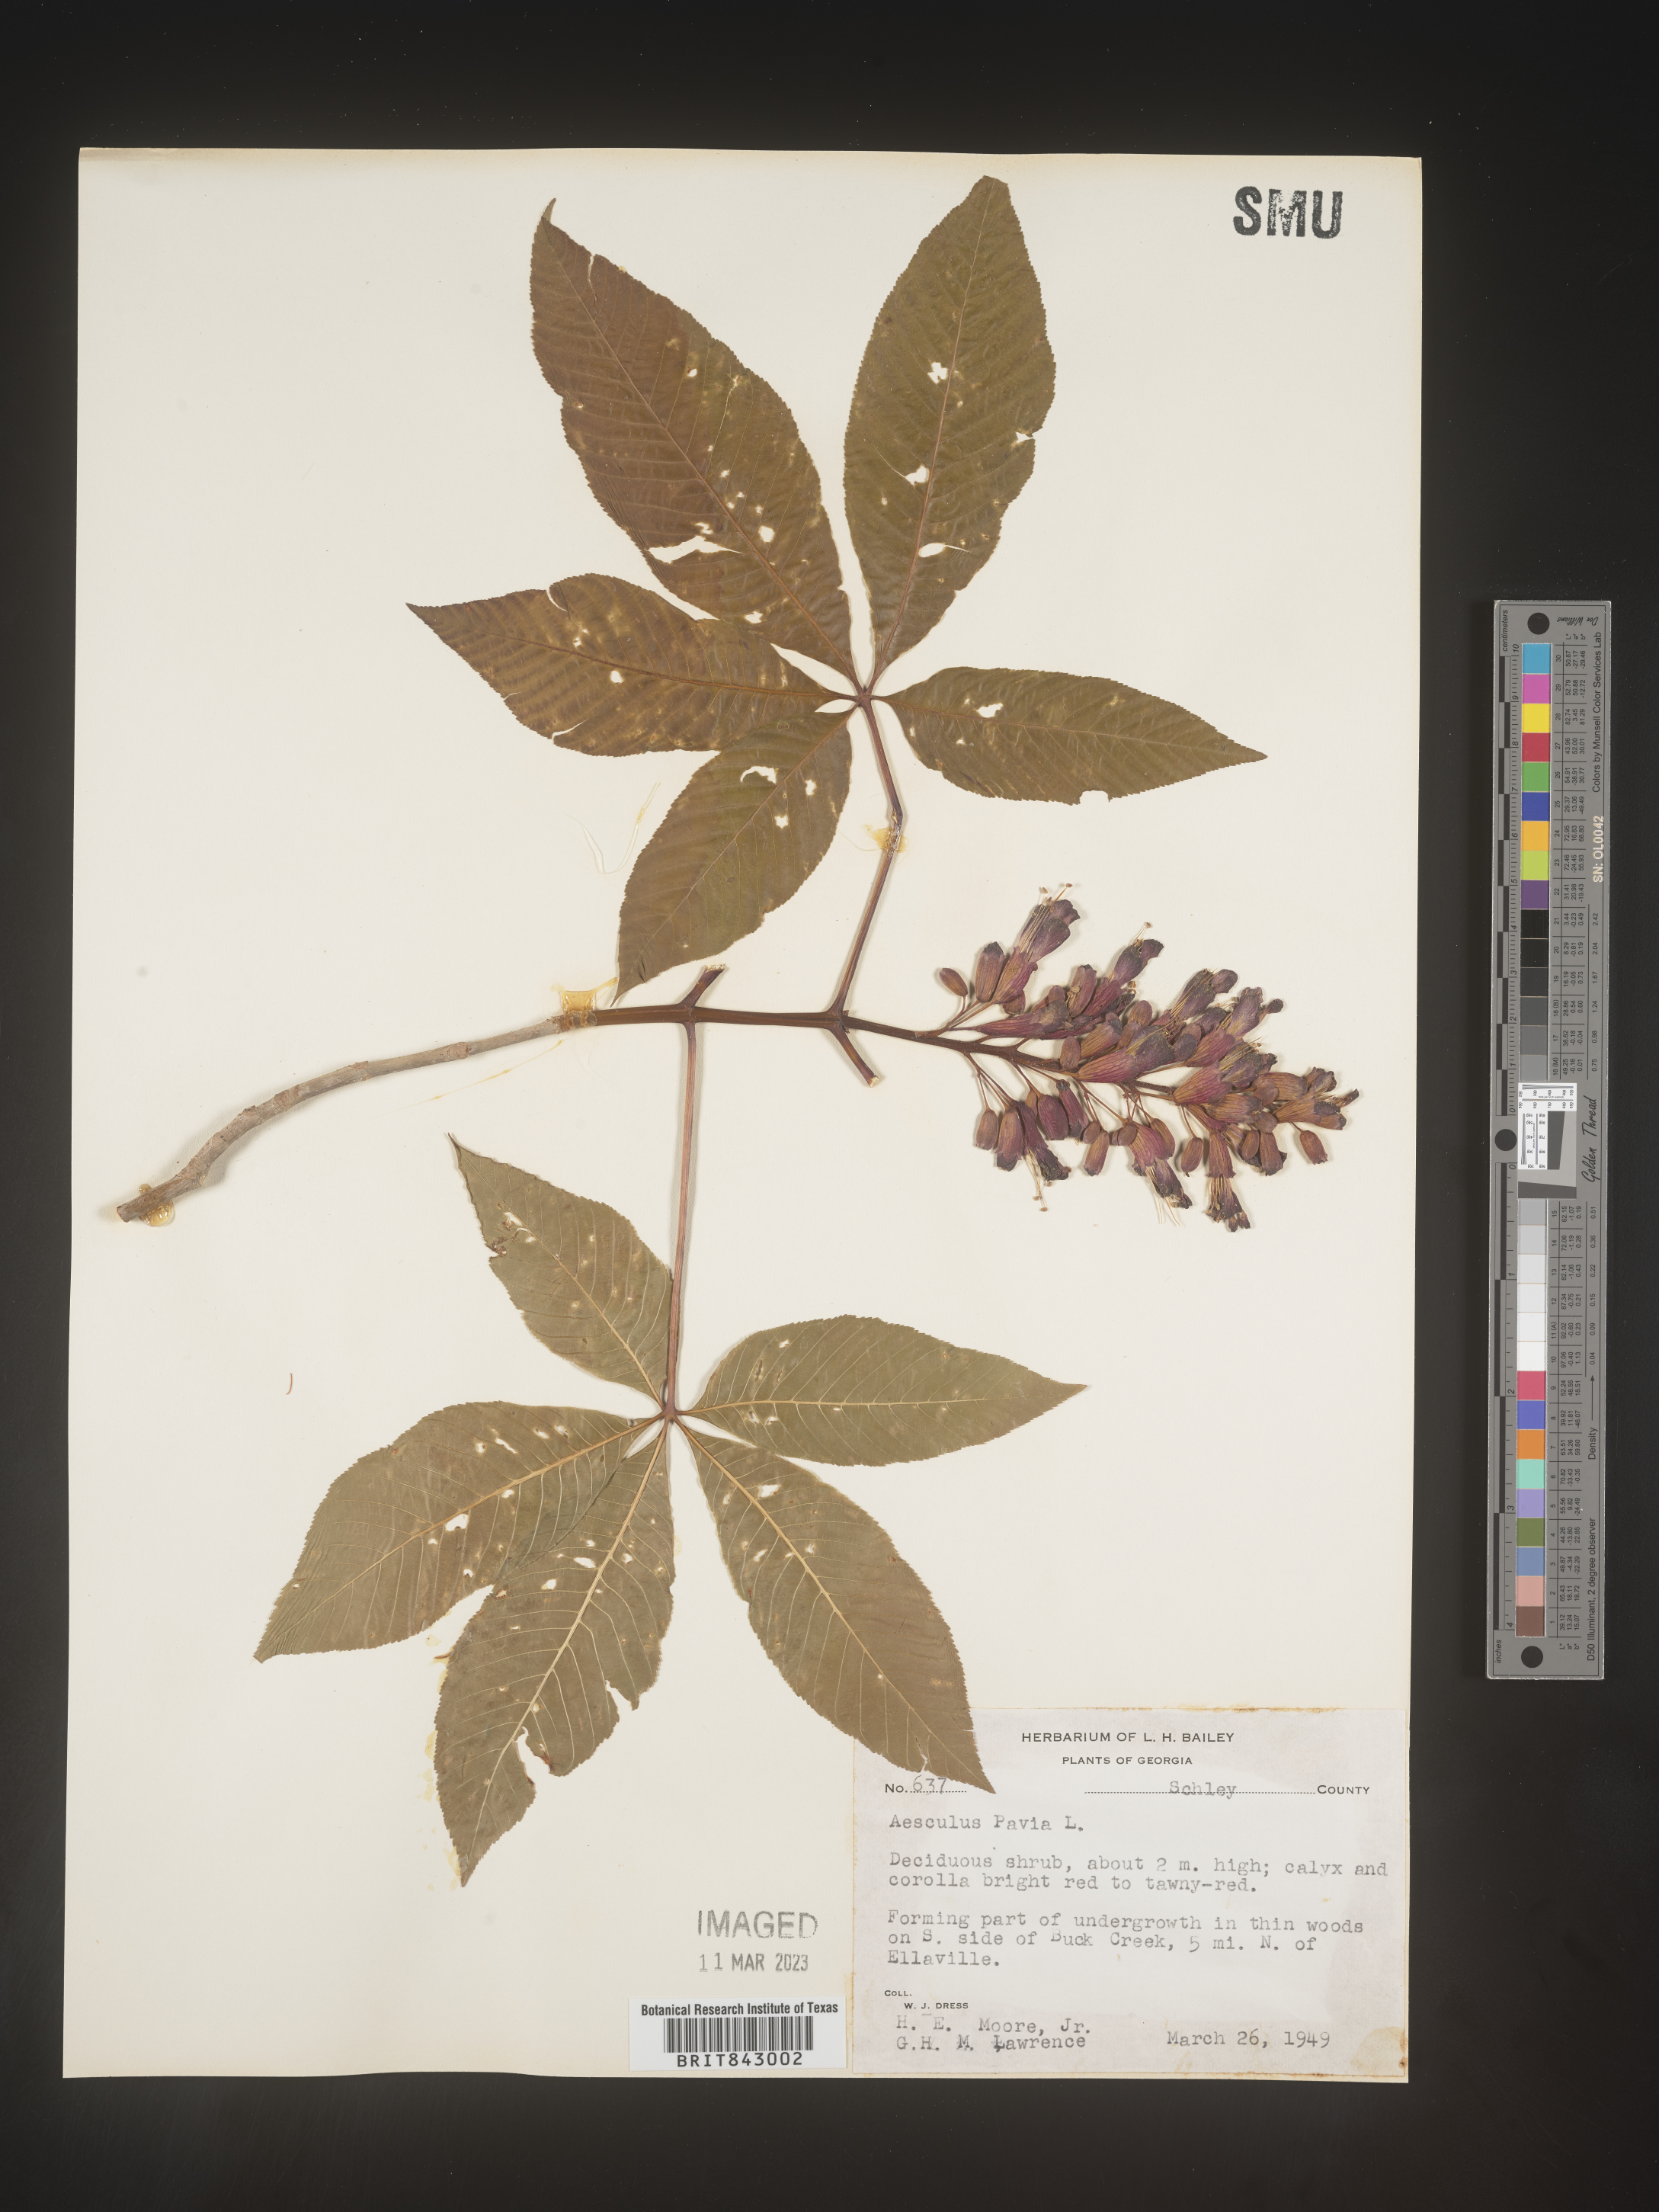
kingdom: Plantae
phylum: Tracheophyta
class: Magnoliopsida
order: Sapindales
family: Sapindaceae
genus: Aesculus
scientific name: Aesculus pavia
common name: Red buckeye
